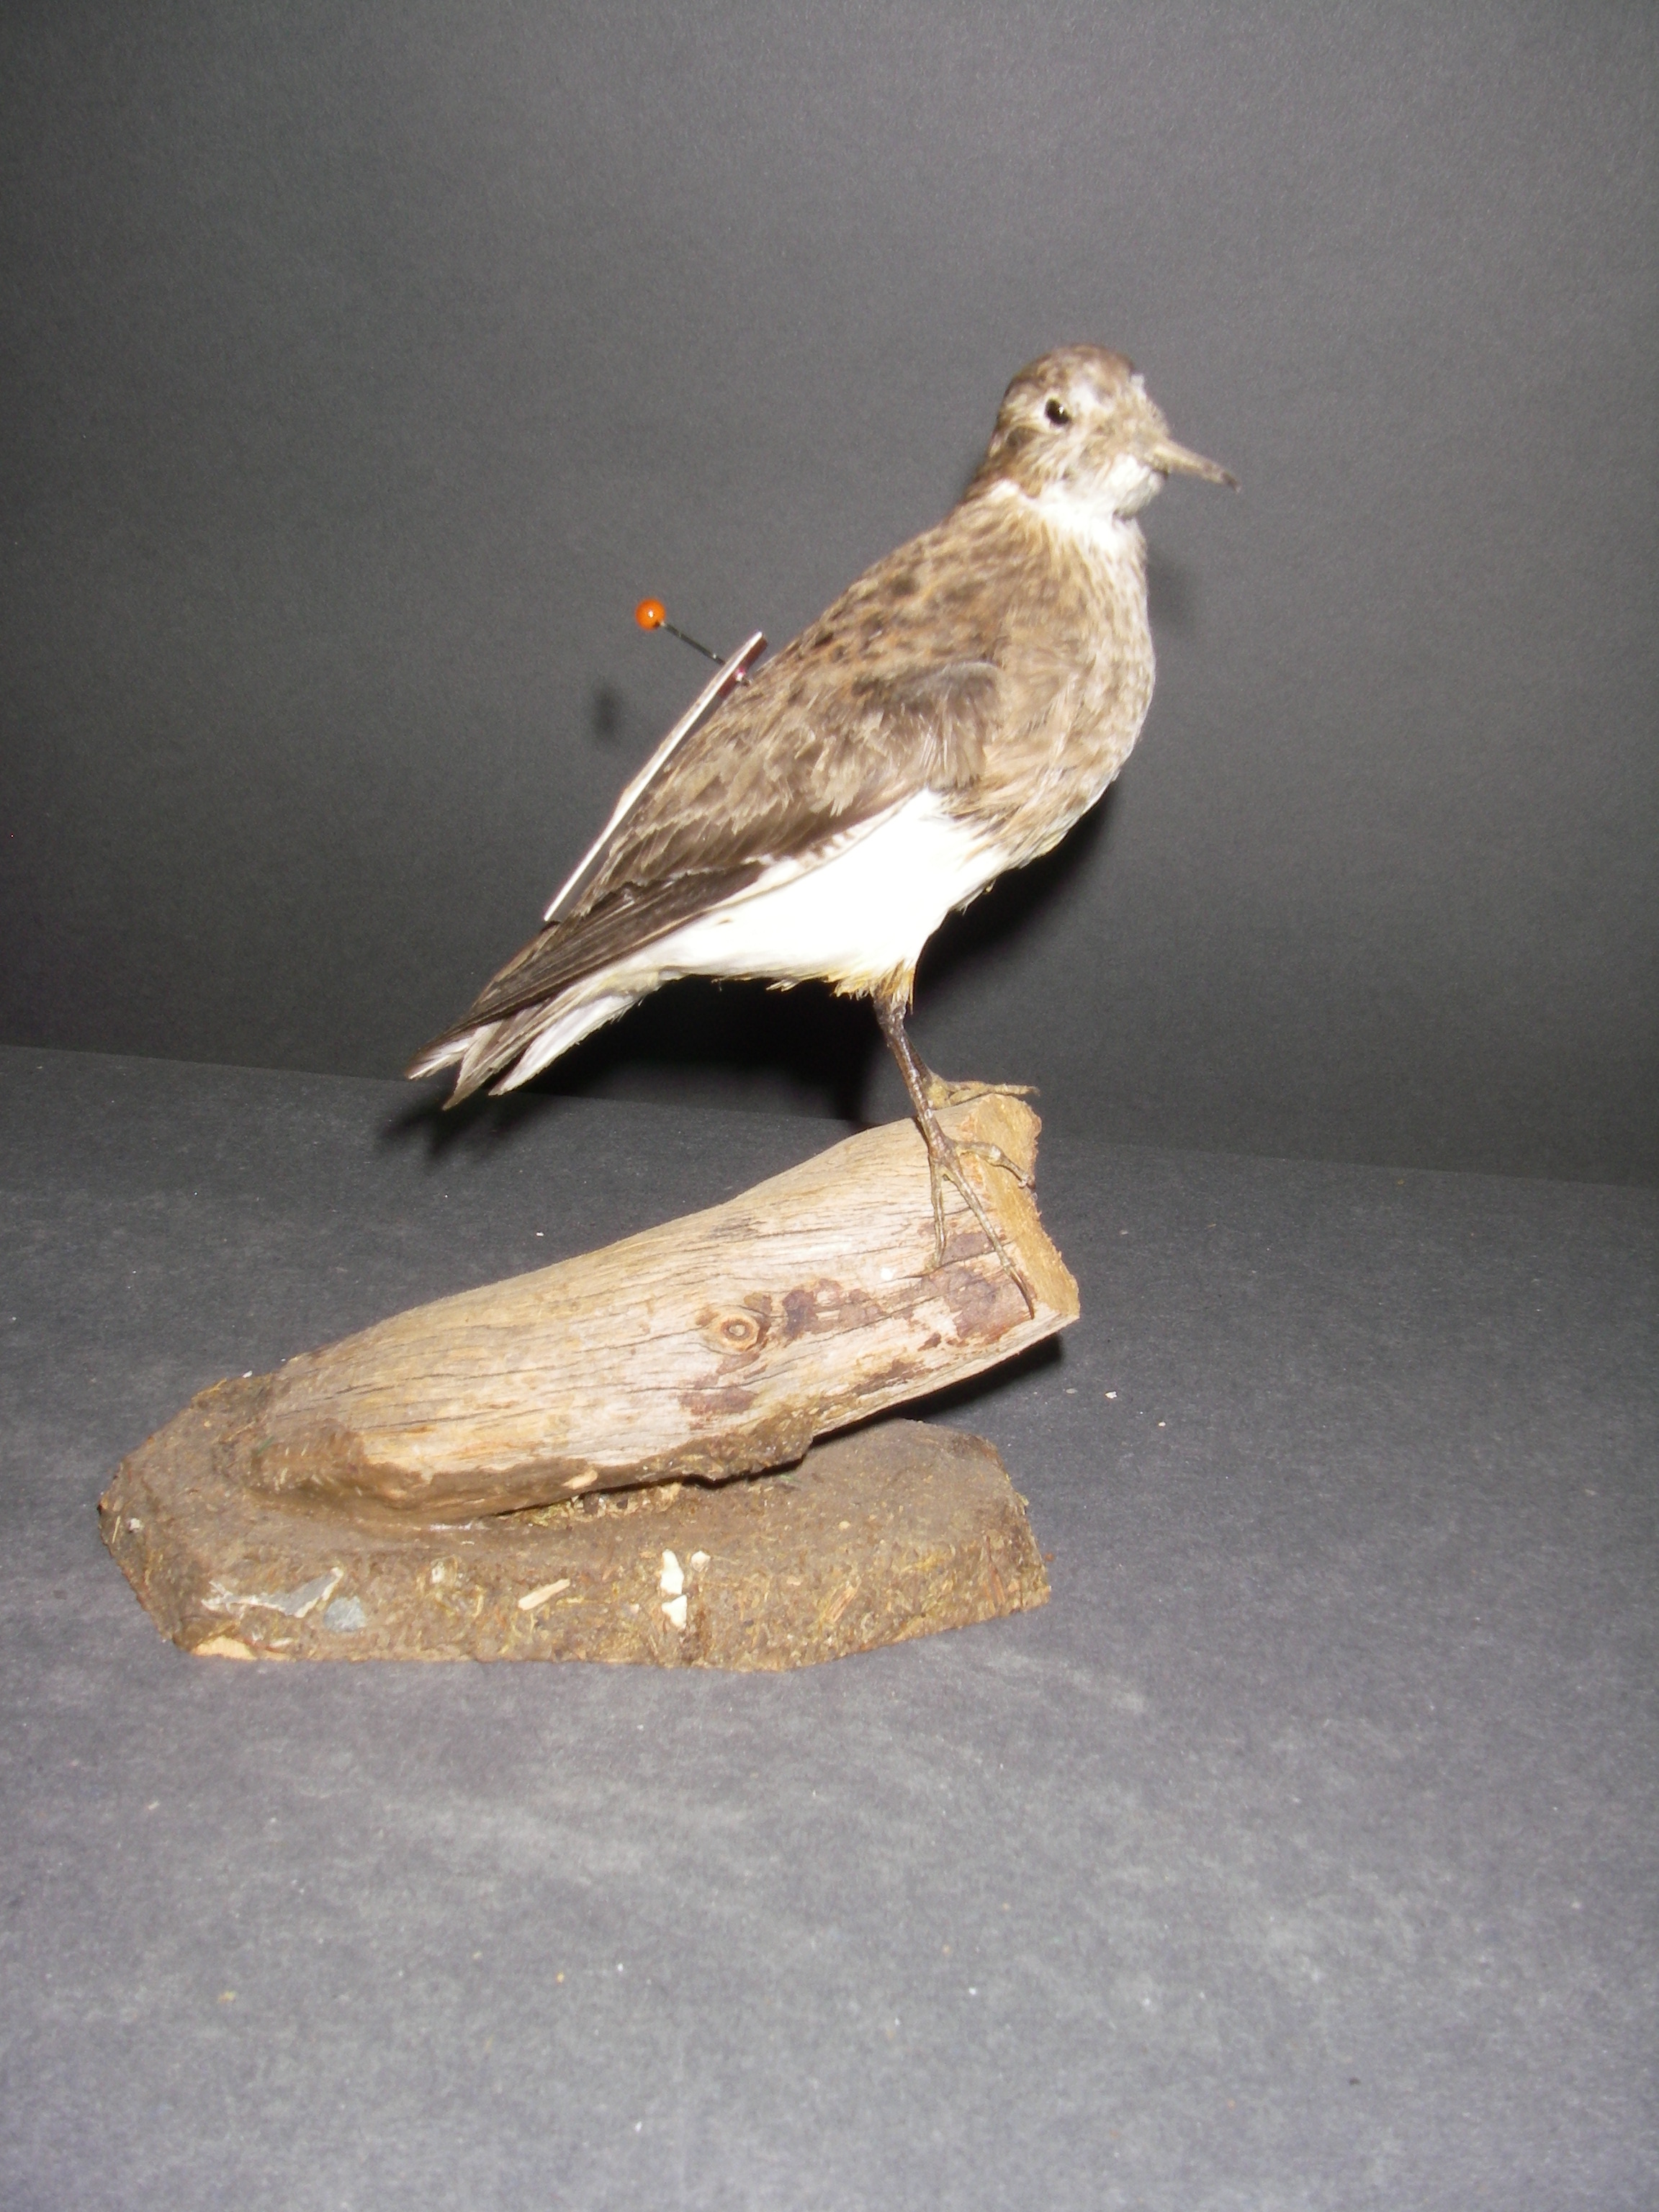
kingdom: Animalia
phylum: Chordata
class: Aves
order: Charadriiformes
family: Scolopacidae
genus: Calidris
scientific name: Calidris subminuta
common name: Long-toed stint
